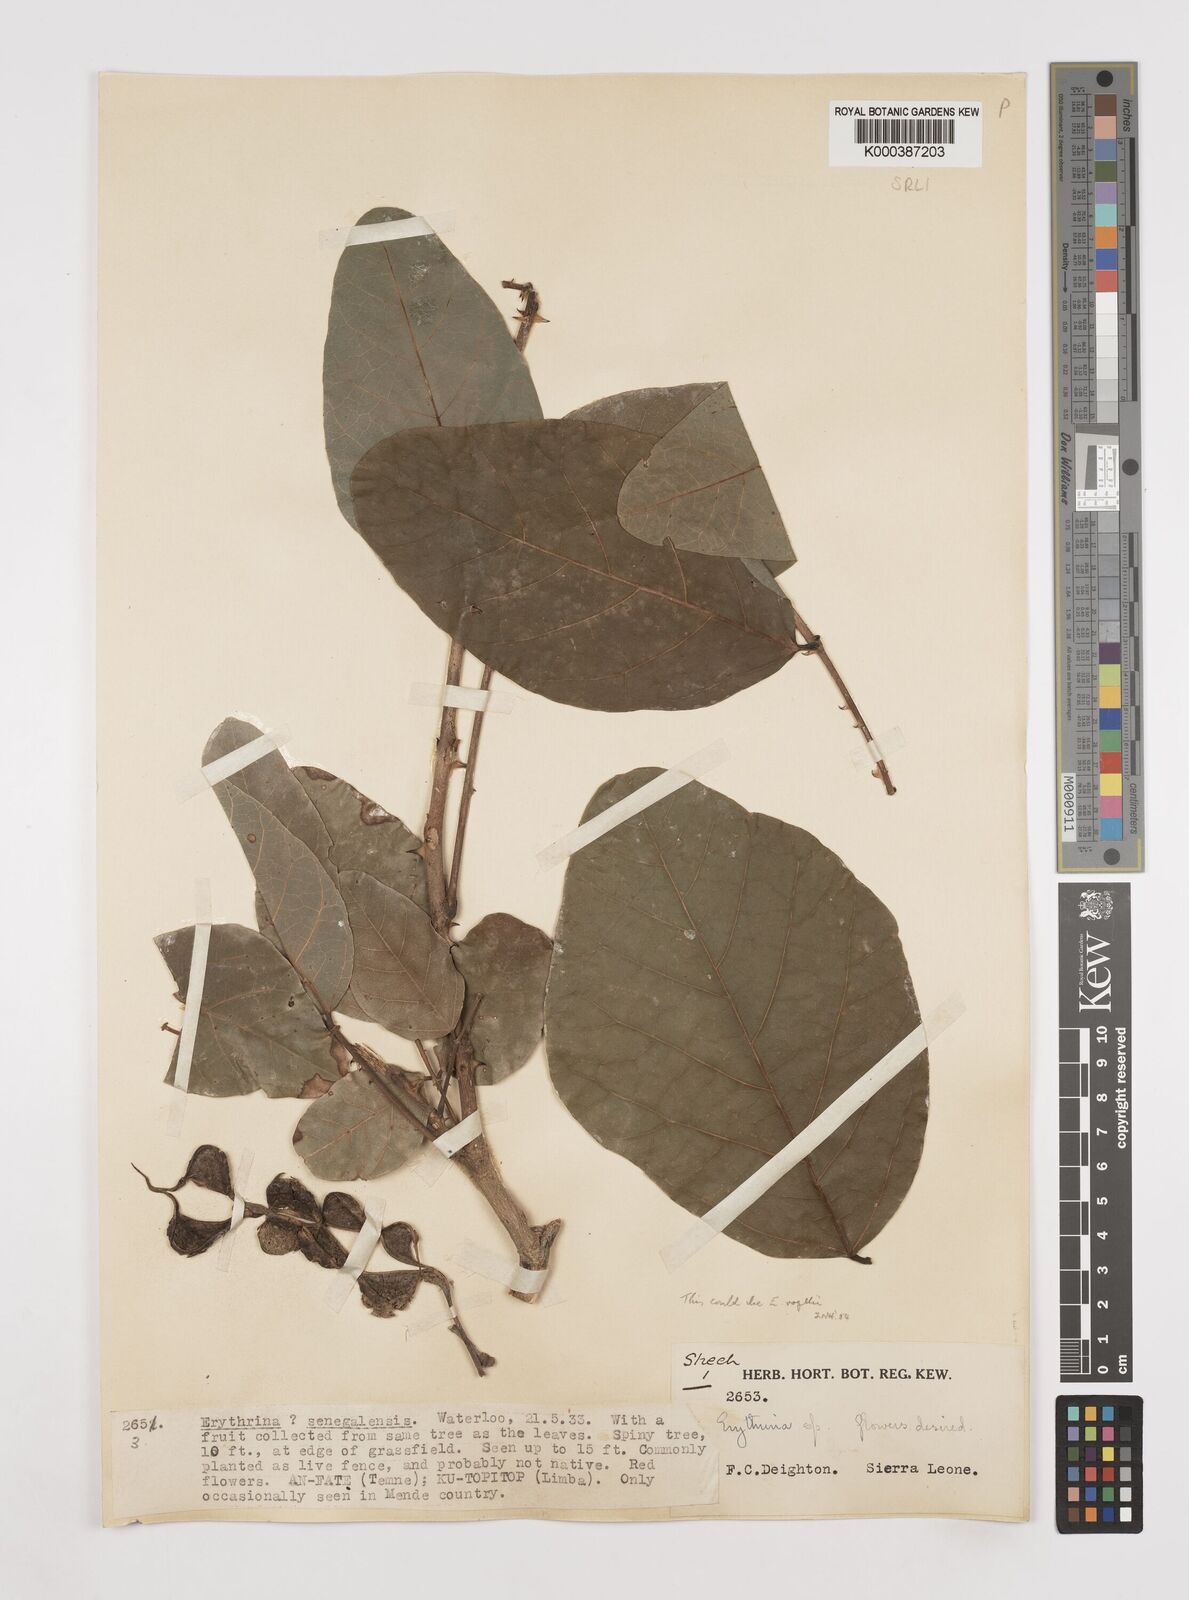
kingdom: Plantae
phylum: Tracheophyta
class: Magnoliopsida
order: Fabales
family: Fabaceae
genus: Erythrina
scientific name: Erythrina senegalensis
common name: Senegal coraltree
